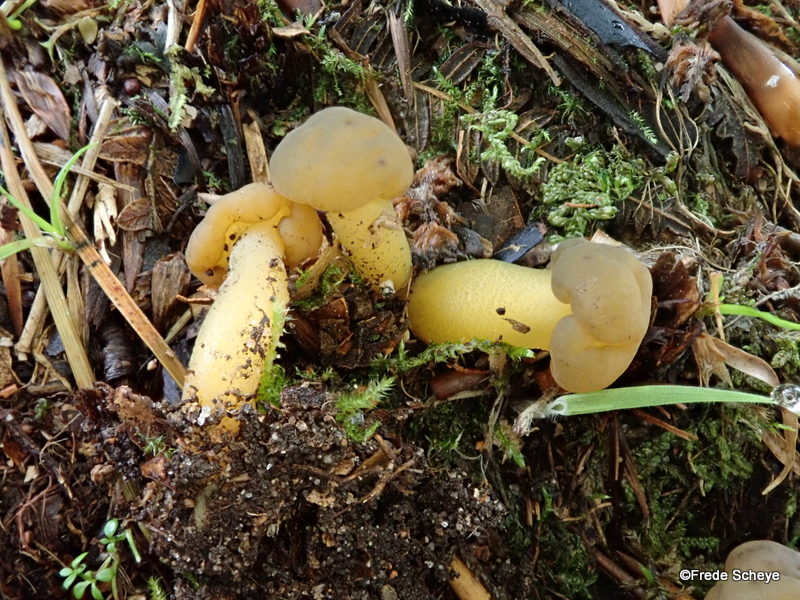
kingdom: Fungi
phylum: Ascomycota
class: Leotiomycetes
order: Leotiales
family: Leotiaceae
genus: Leotia
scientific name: Leotia lubrica
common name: ravsvamp
